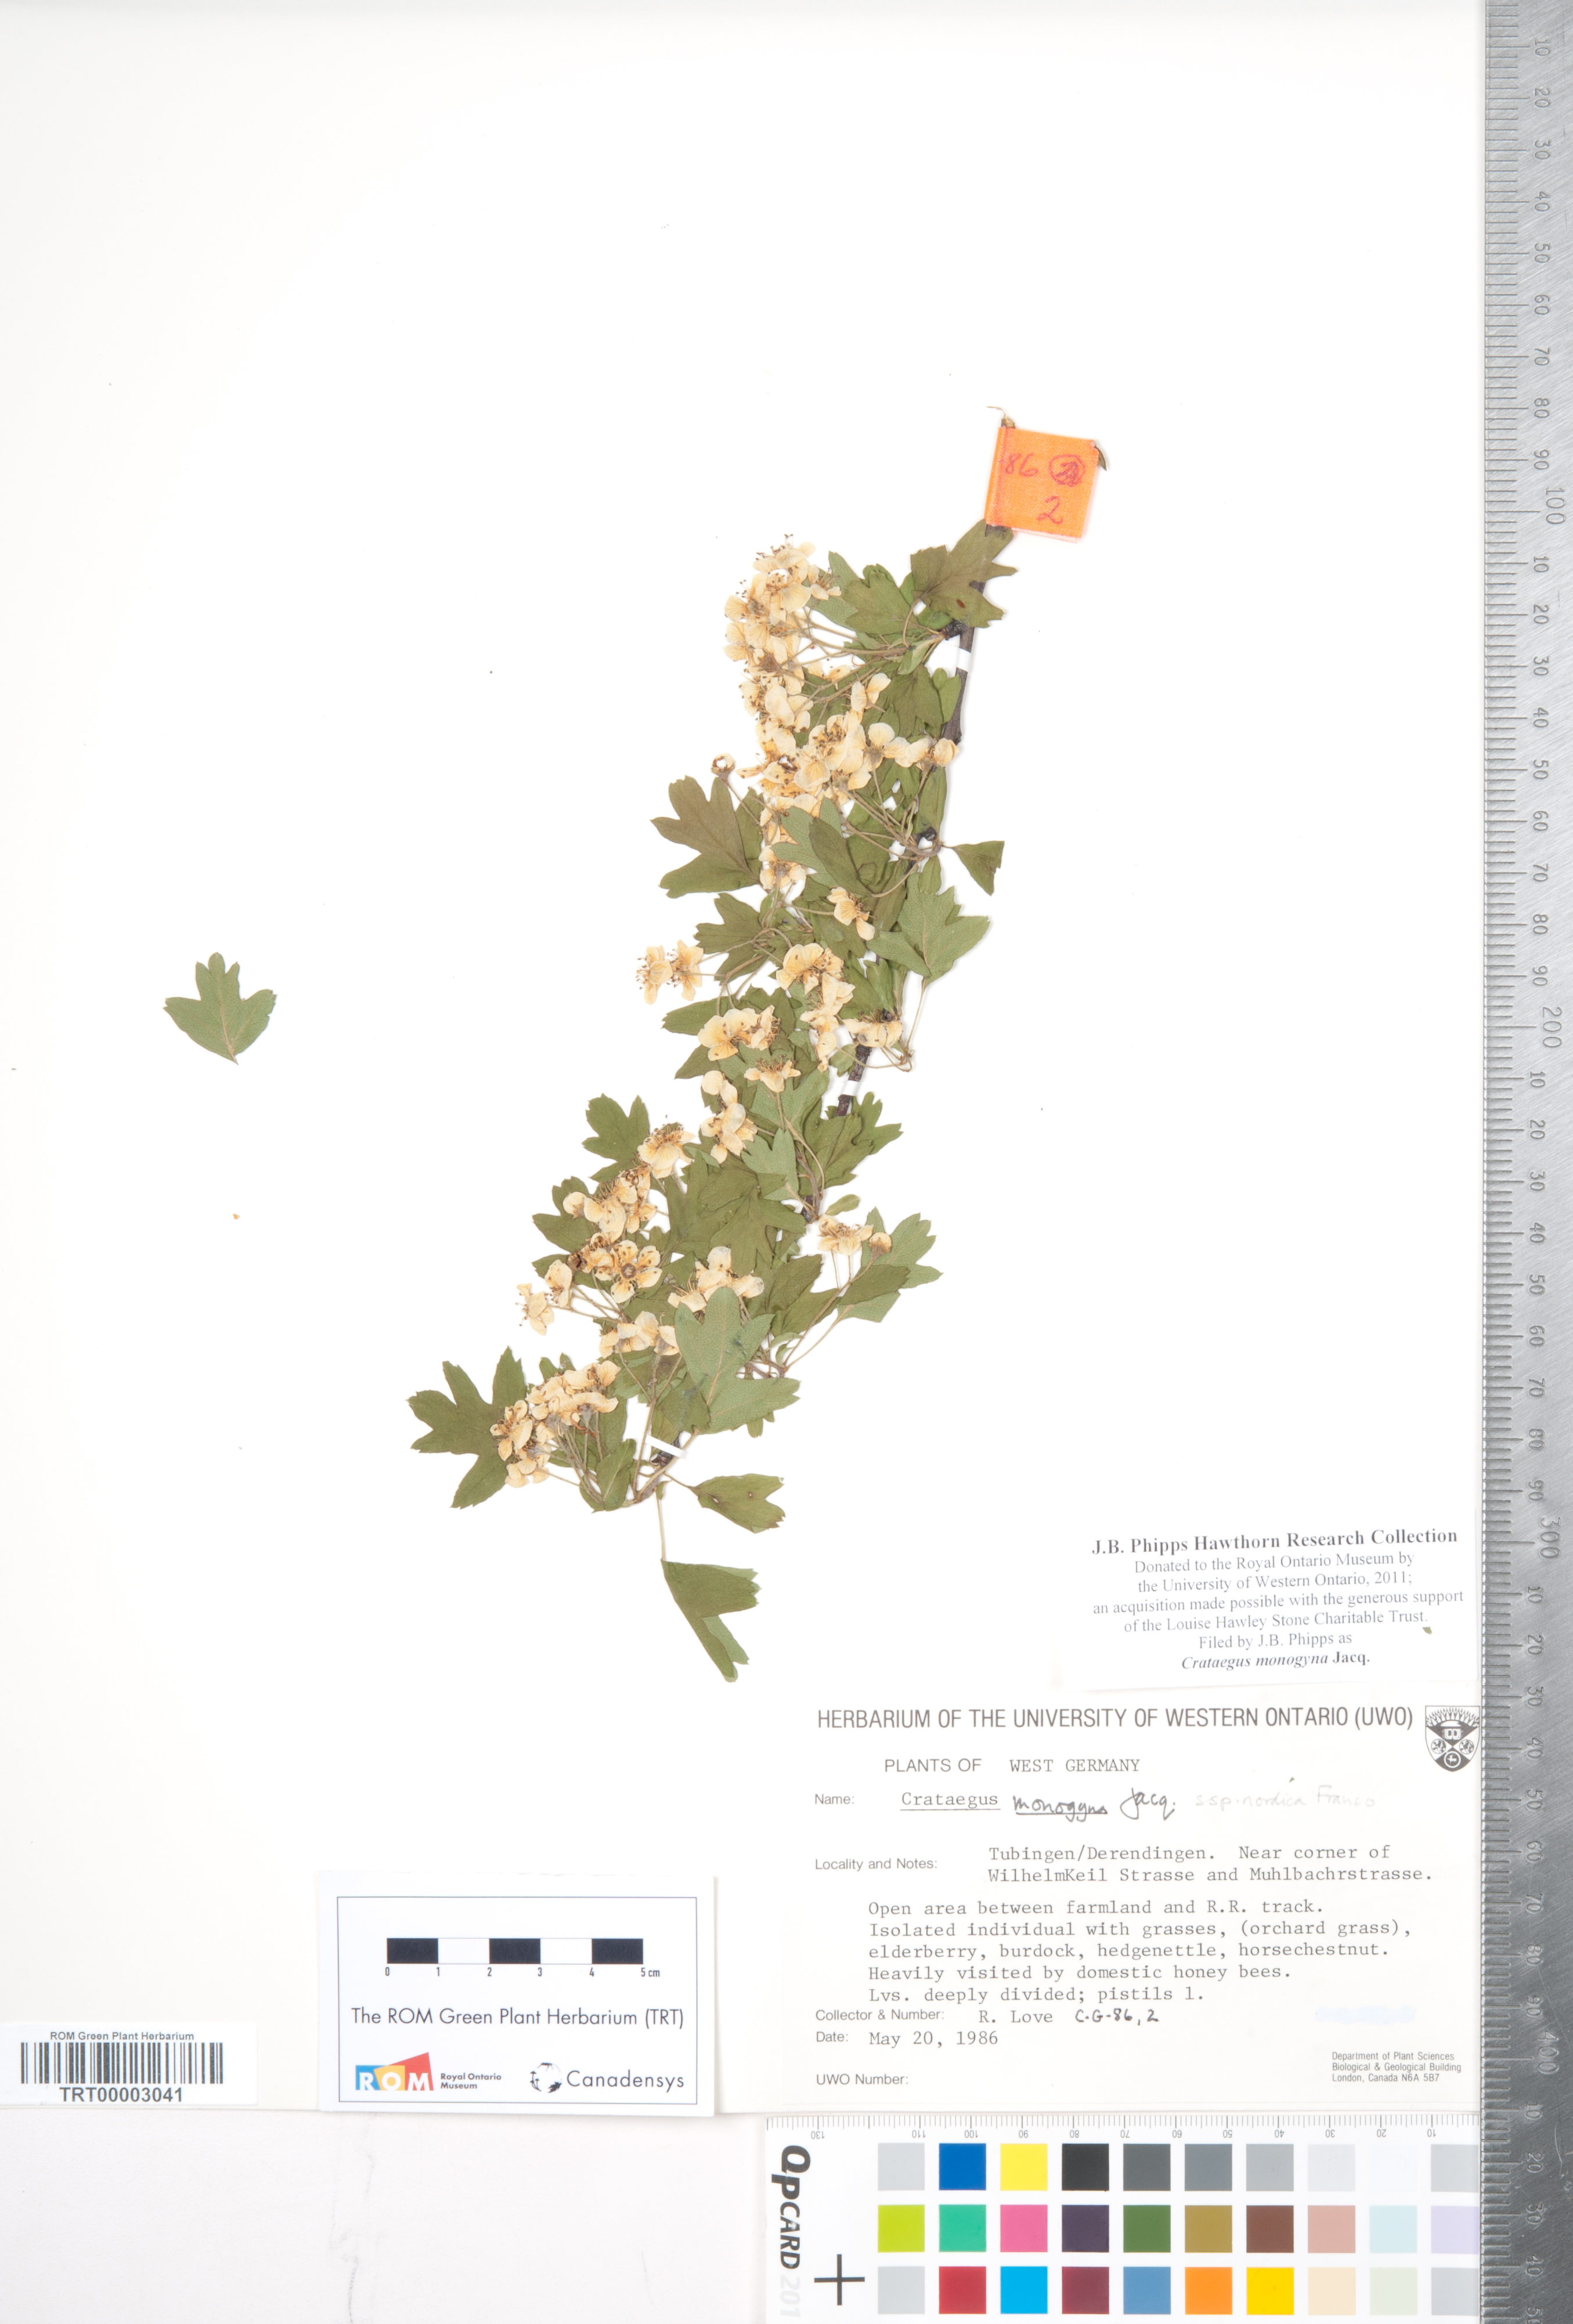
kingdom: Plantae
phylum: Tracheophyta
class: Magnoliopsida
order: Rosales
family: Rosaceae
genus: Crataegus
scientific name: Crataegus monogyna
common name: Hawthorn
